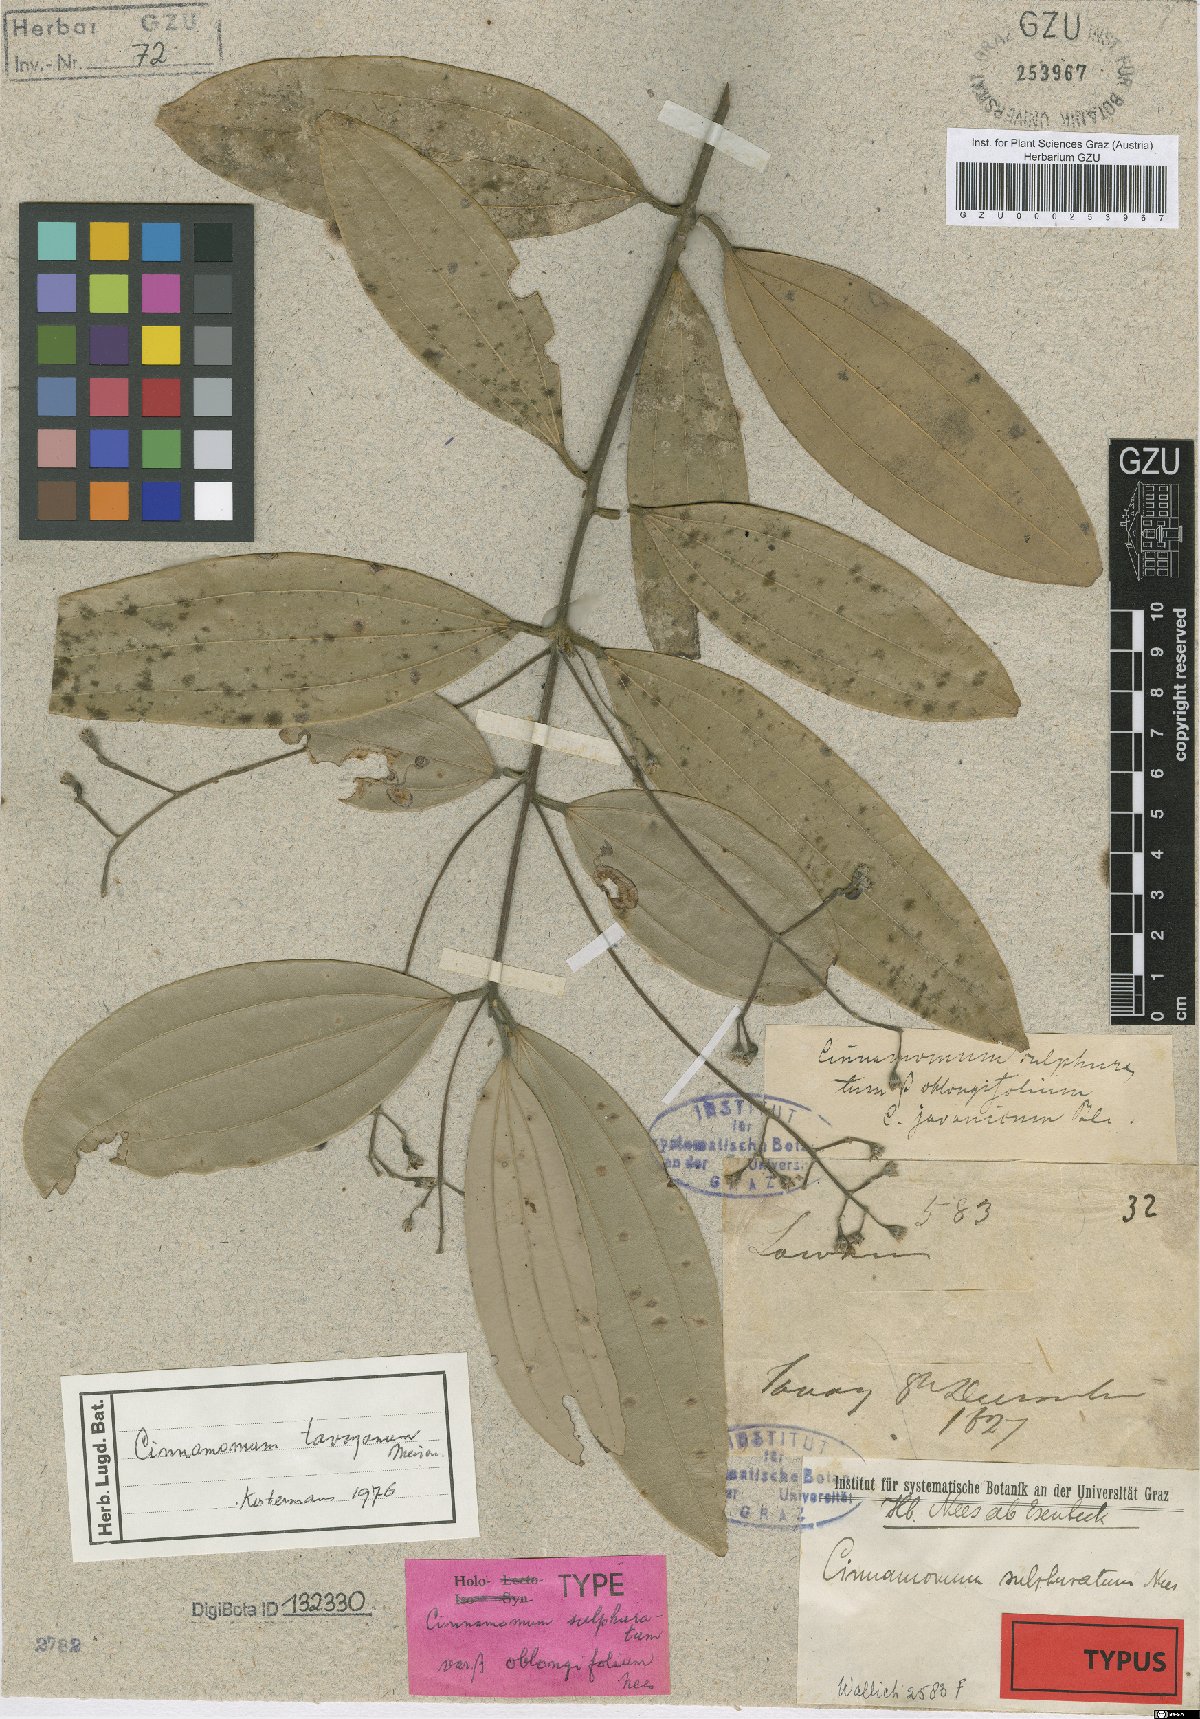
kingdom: Plantae
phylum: Tracheophyta
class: Magnoliopsida
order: Laurales
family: Lauraceae
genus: Cinnamomum
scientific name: Cinnamomum sulphuratum
